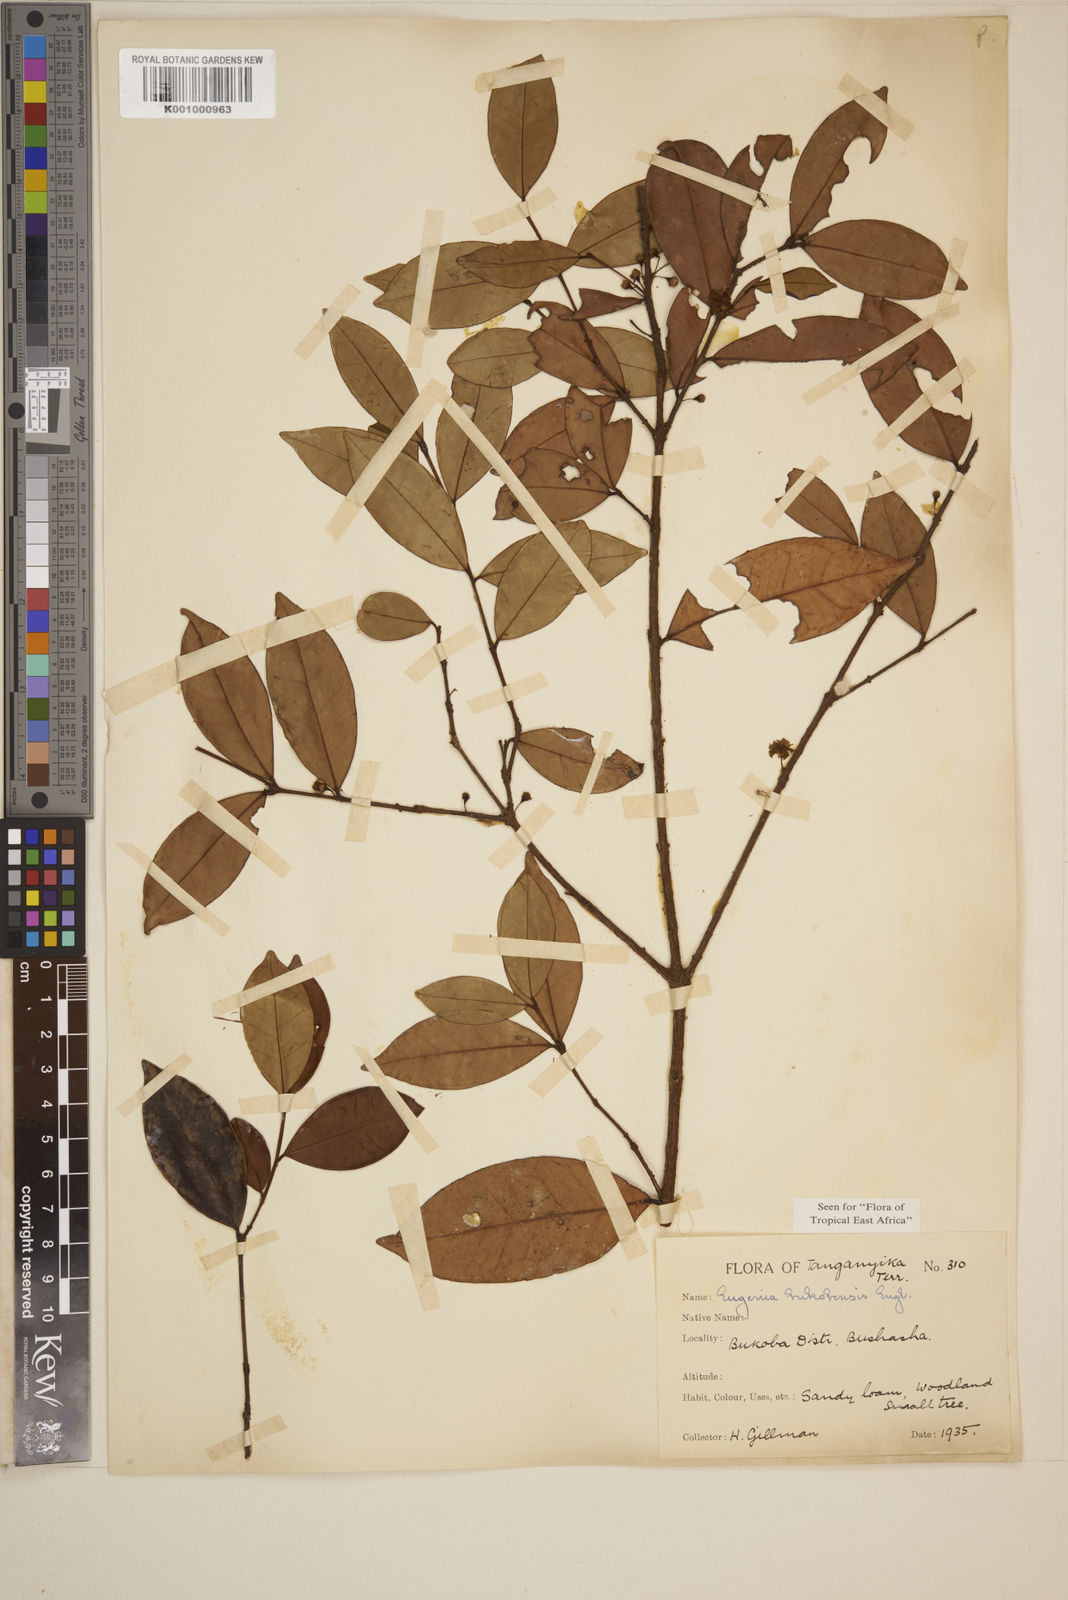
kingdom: Plantae
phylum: Tracheophyta
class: Magnoliopsida
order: Myrtales
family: Myrtaceae
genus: Eugenia
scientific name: Eugenia bukobensis
